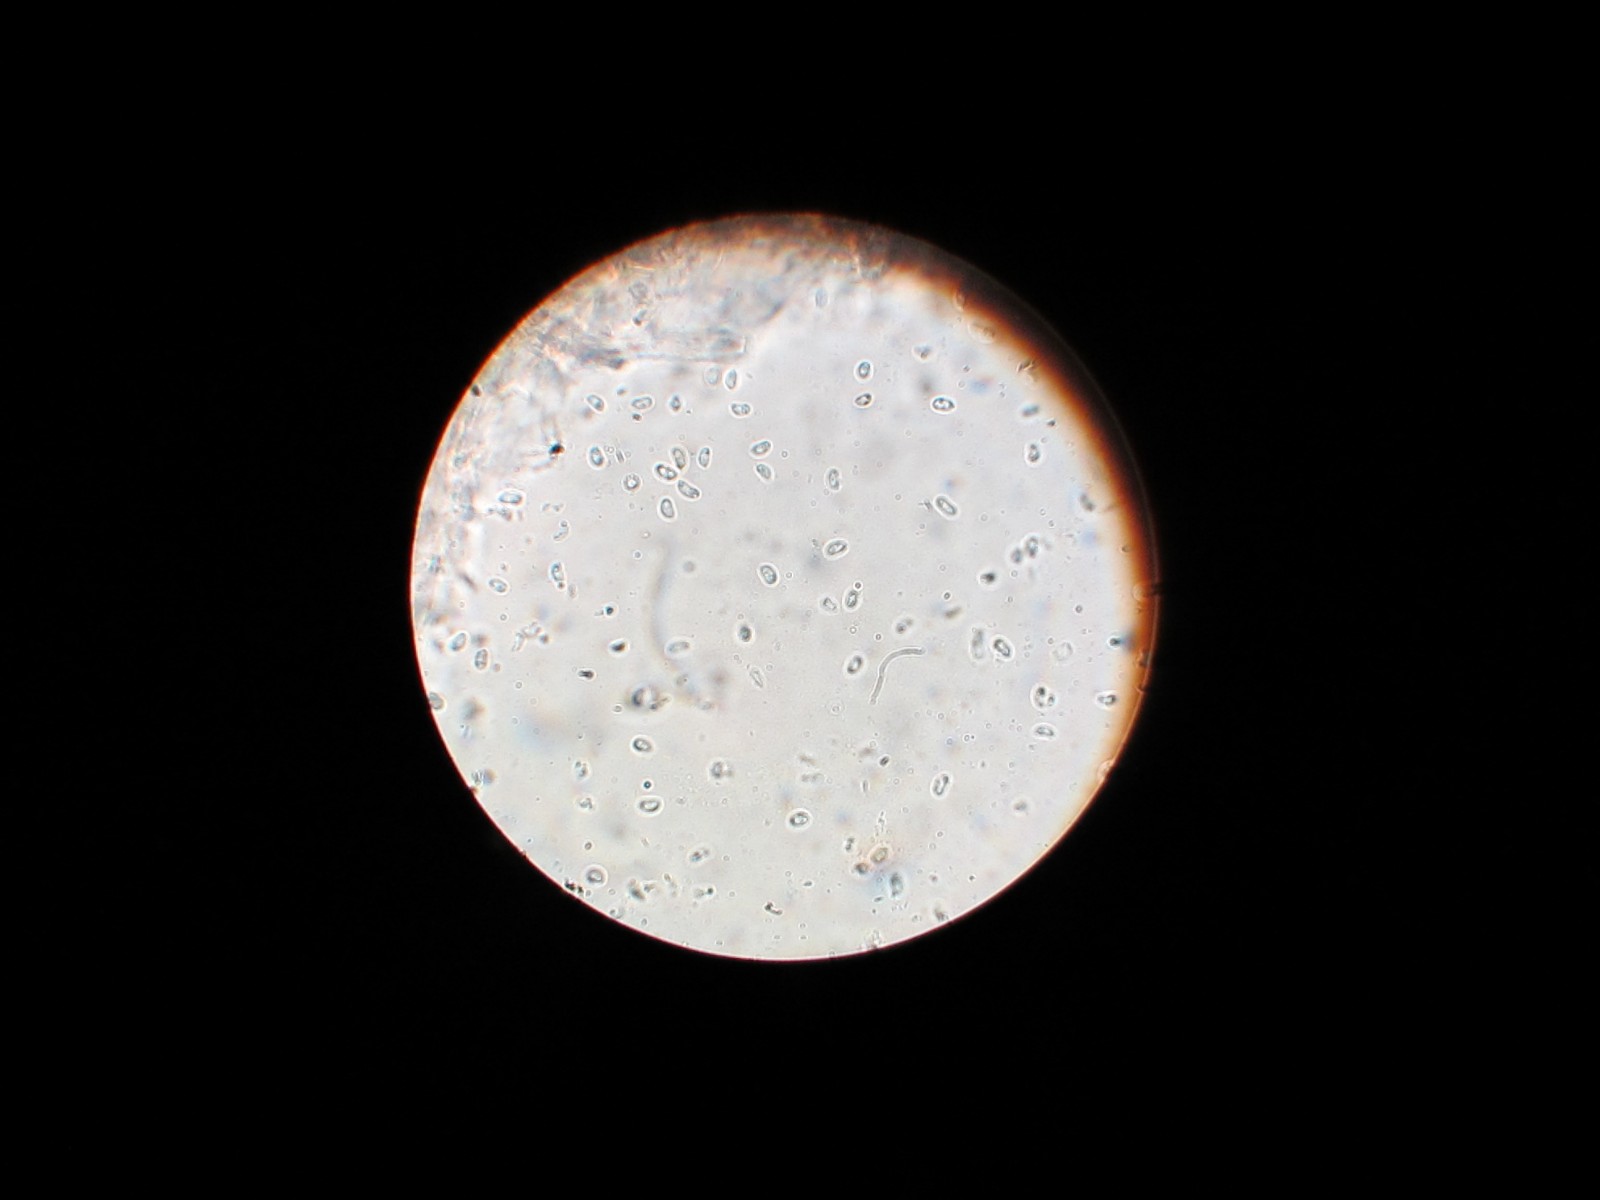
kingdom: Fungi
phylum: Basidiomycota
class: Agaricomycetes
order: Polyporales
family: Irpicaceae
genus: Ceriporia
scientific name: Ceriporia excelsa
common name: lilla voksporesvamp
